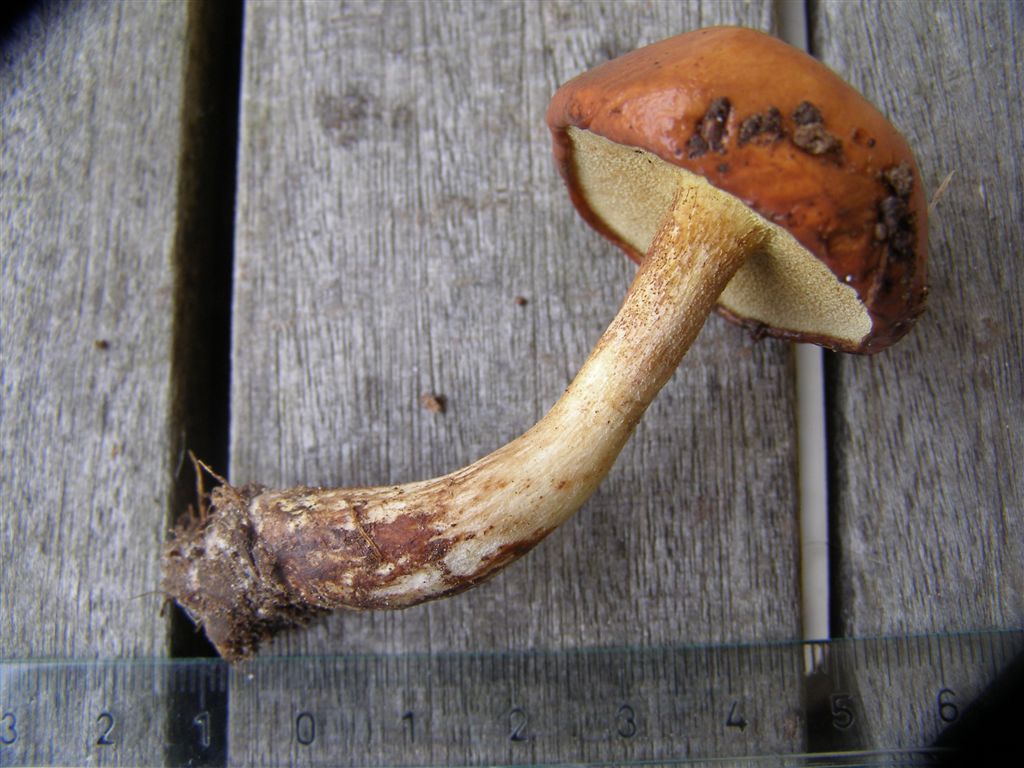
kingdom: Fungi
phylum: Basidiomycota
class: Agaricomycetes
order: Boletales
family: Suillaceae
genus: Suillus
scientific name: Suillus granulatus
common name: kornet slimrørhat
